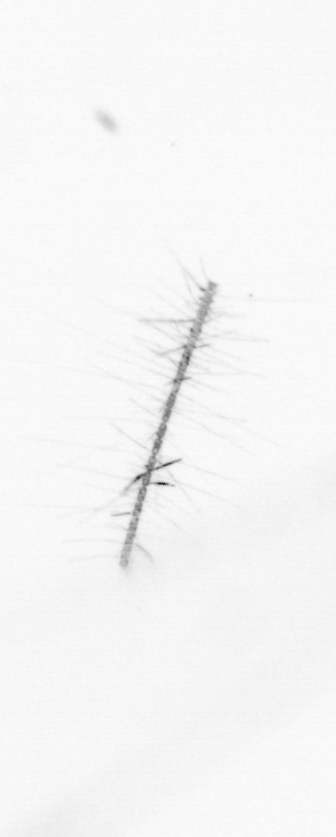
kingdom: Chromista
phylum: Ochrophyta
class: Bacillariophyceae
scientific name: Bacillariophyceae
